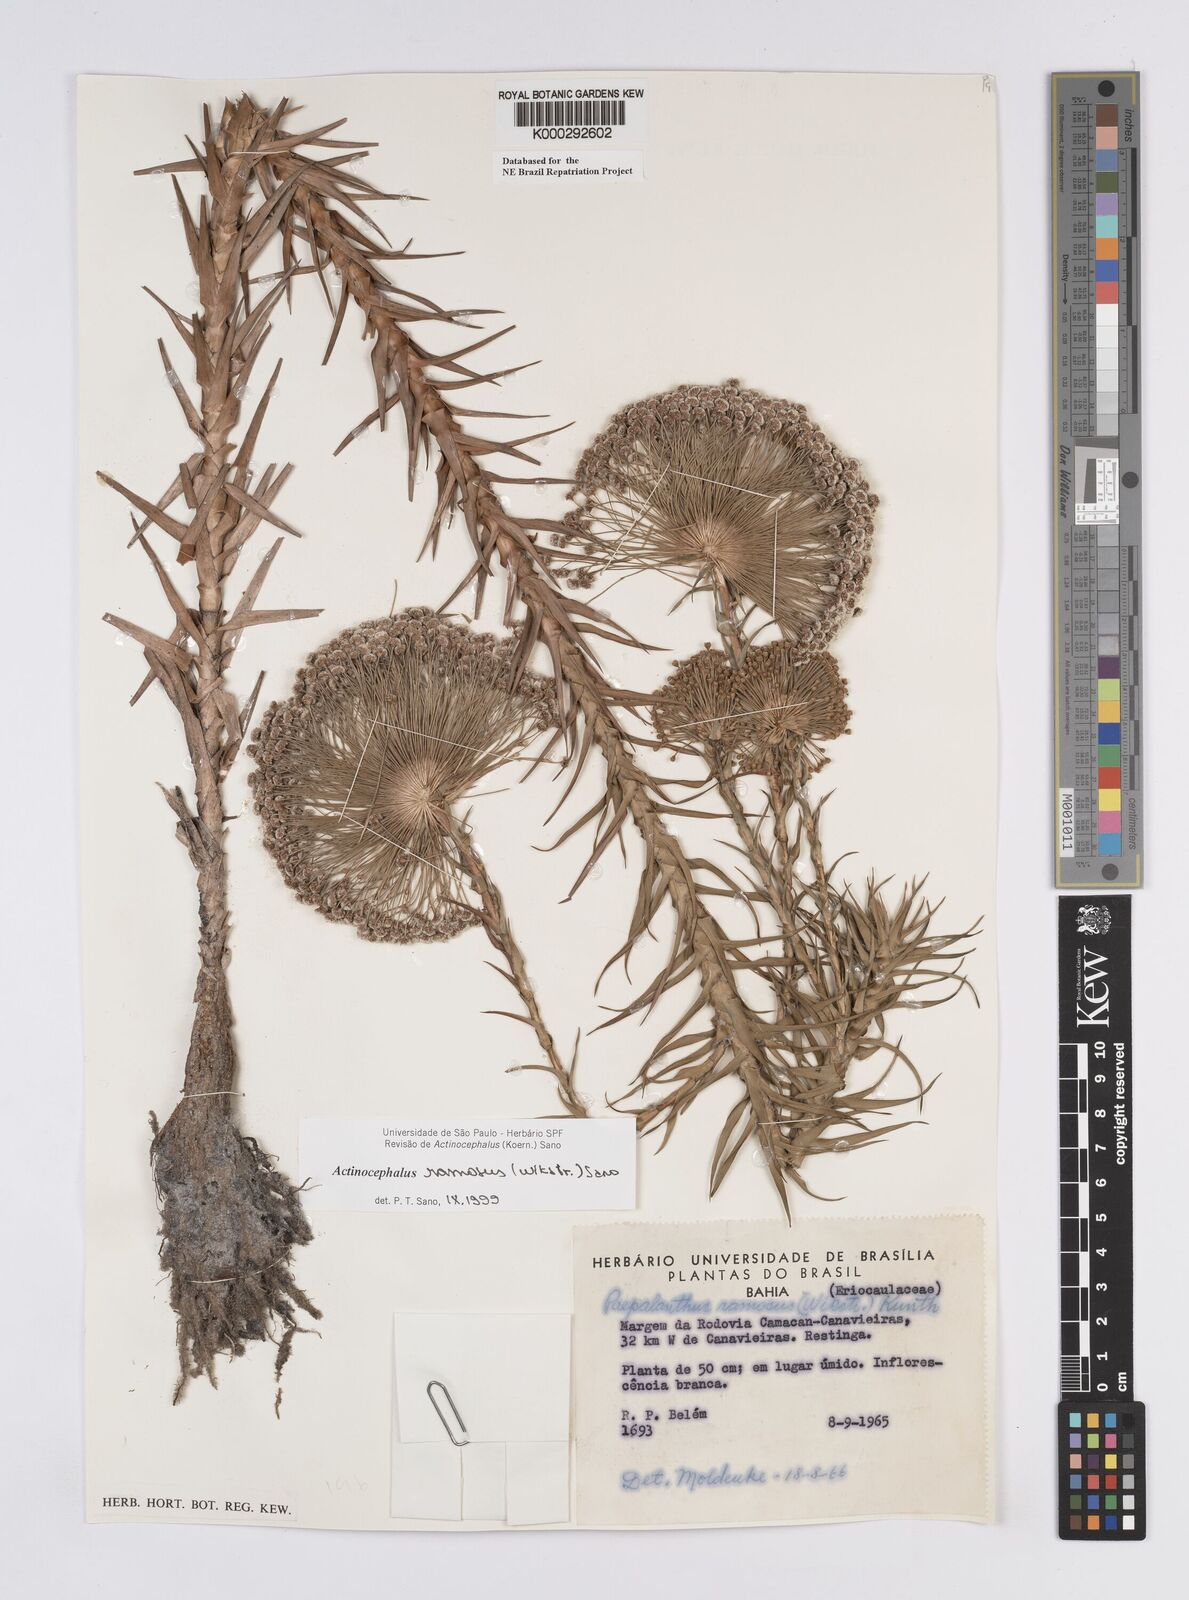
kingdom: Plantae
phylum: Tracheophyta
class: Liliopsida
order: Poales
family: Eriocaulaceae
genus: Paepalanthus
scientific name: Paepalanthus ramosus
